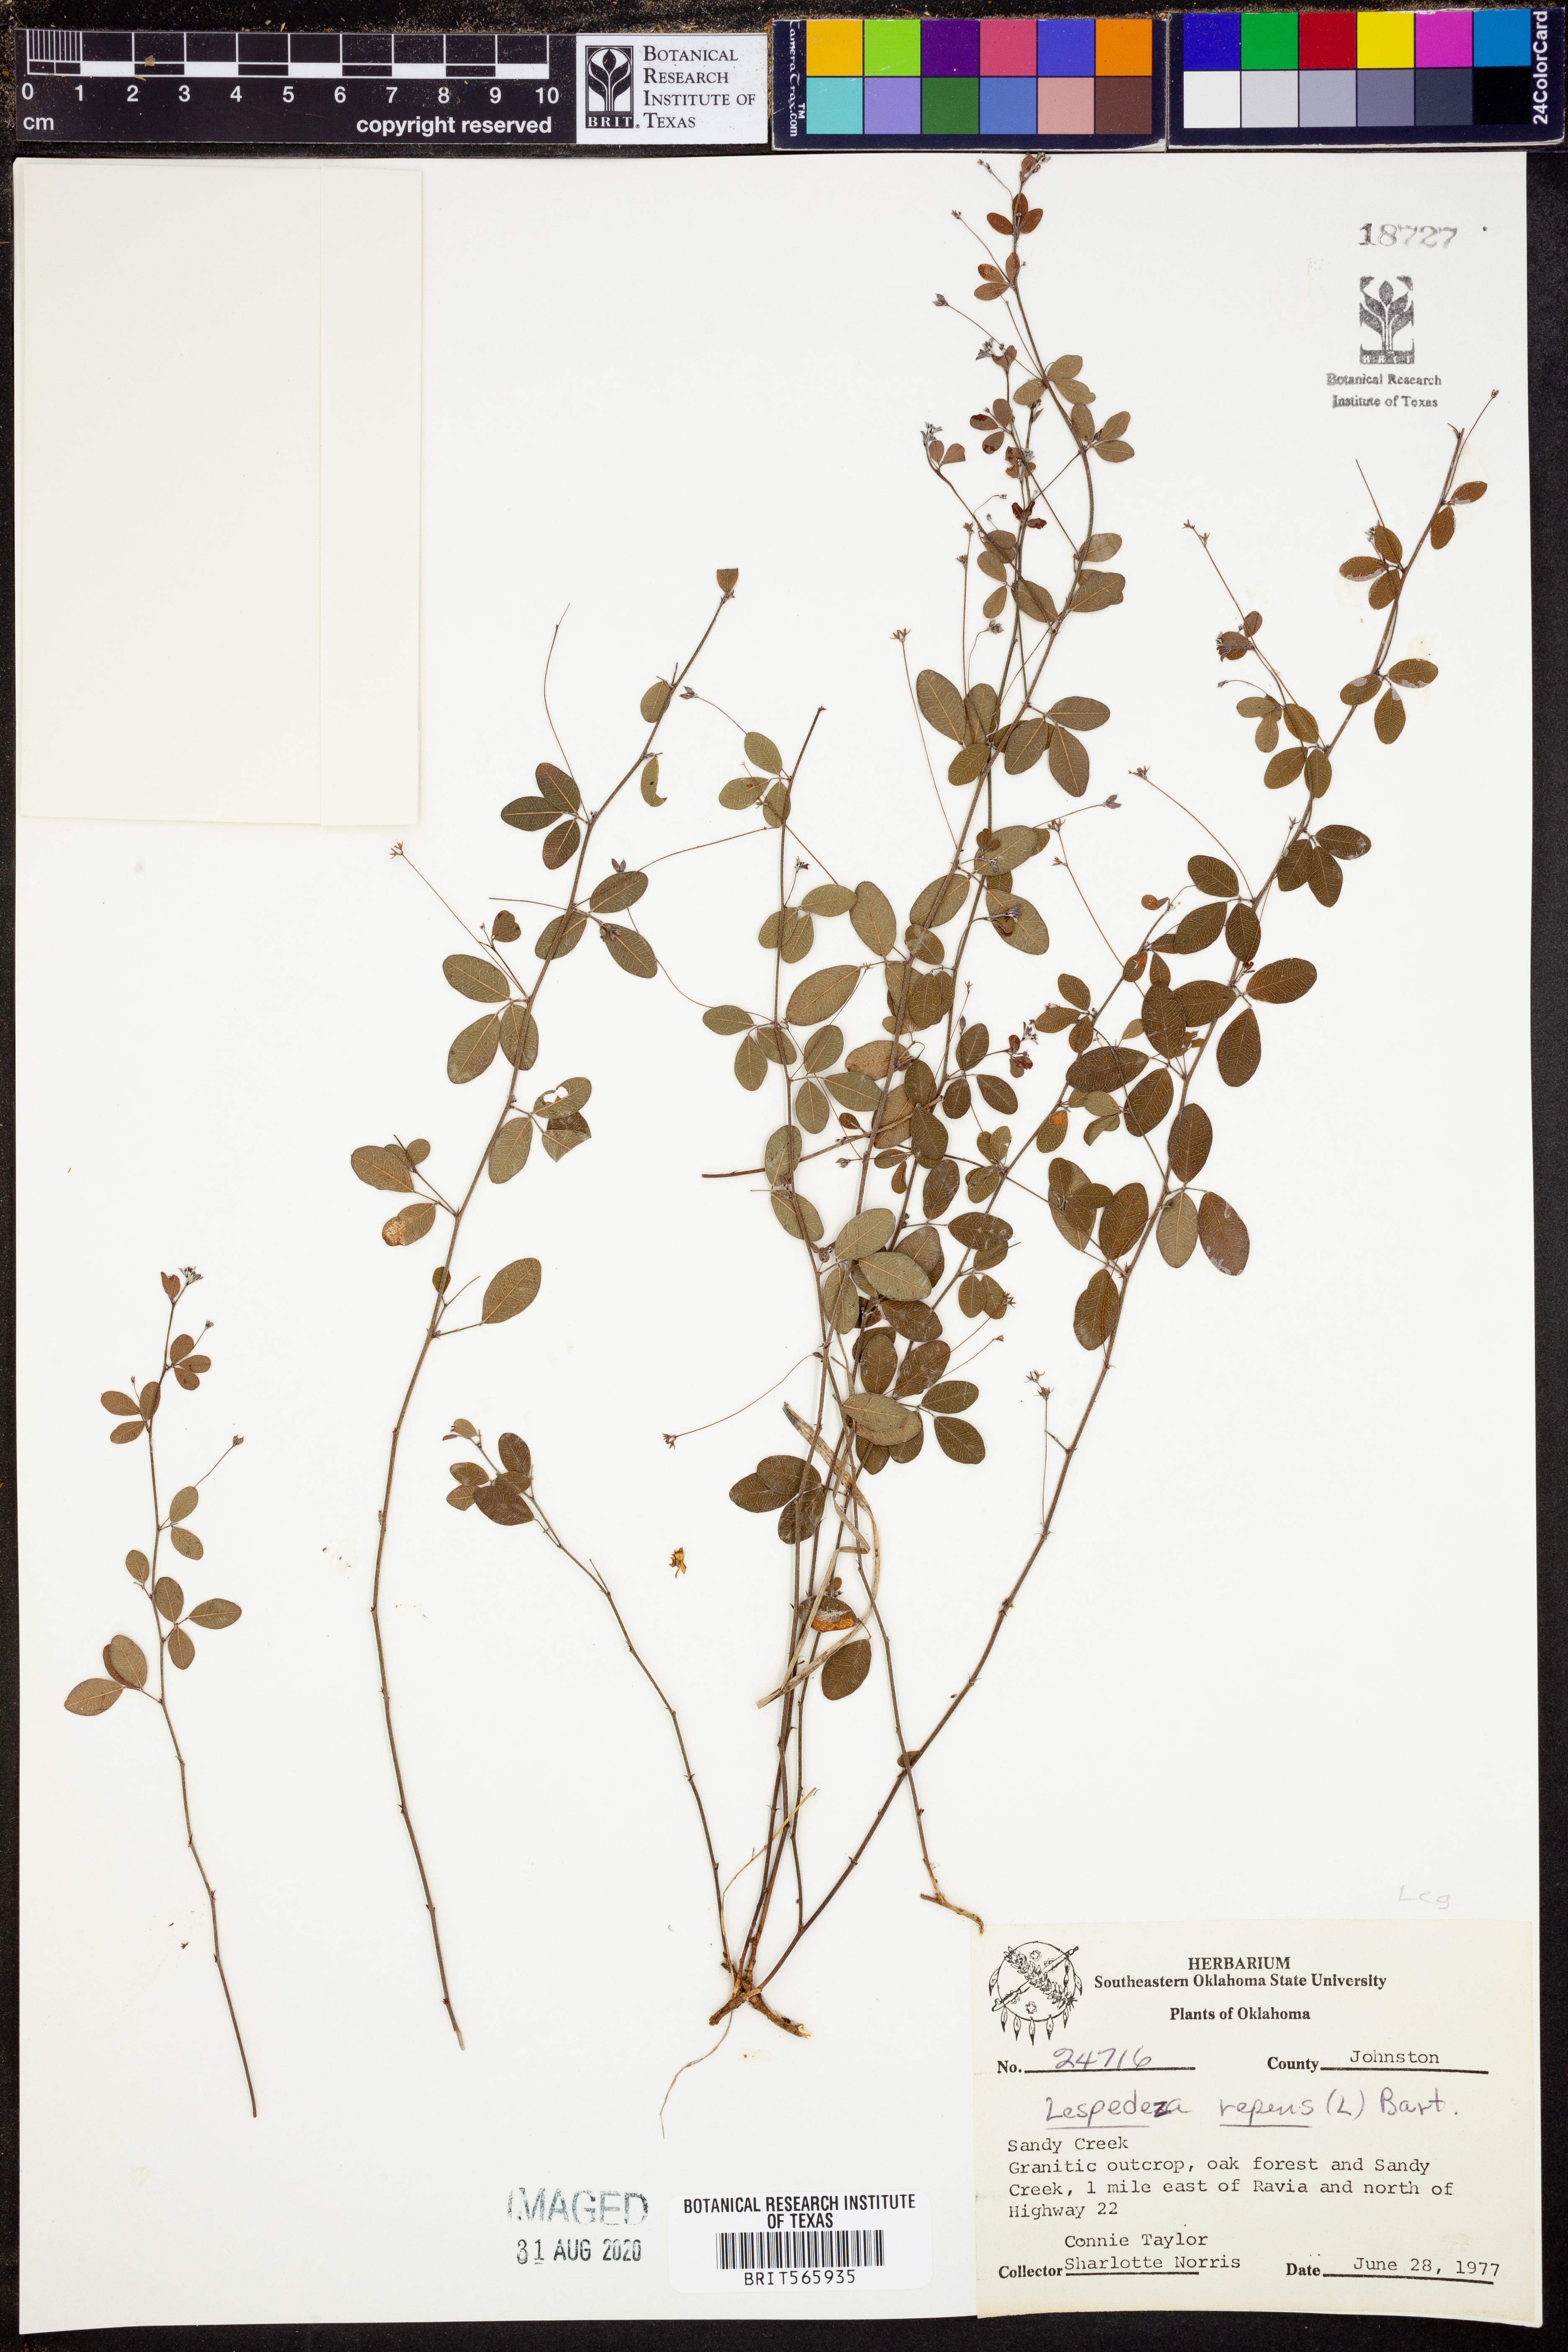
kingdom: Plantae
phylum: Tracheophyta
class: Magnoliopsida
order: Fabales
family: Fabaceae
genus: Lespedeza
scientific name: Lespedeza repens
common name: Creeping bush-clover
